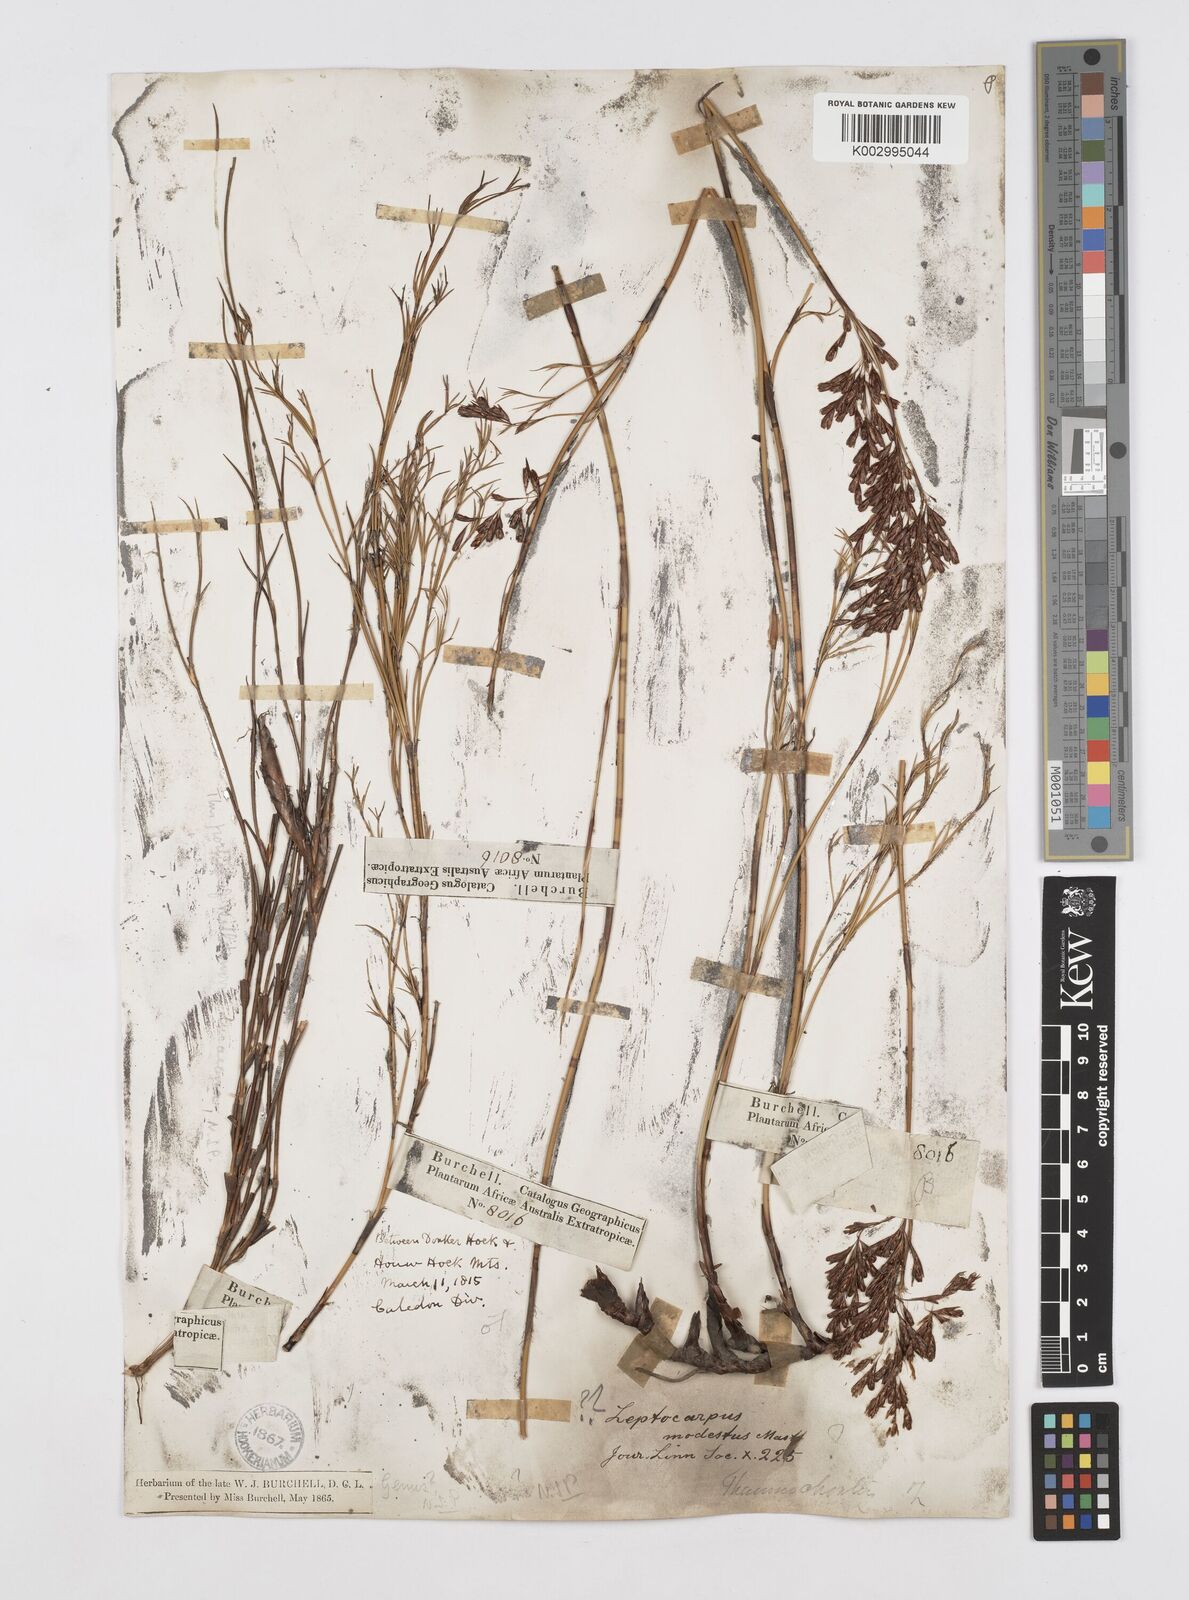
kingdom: Plantae
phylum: Tracheophyta
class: Liliopsida
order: Poales
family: Restionaceae
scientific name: Restionaceae
